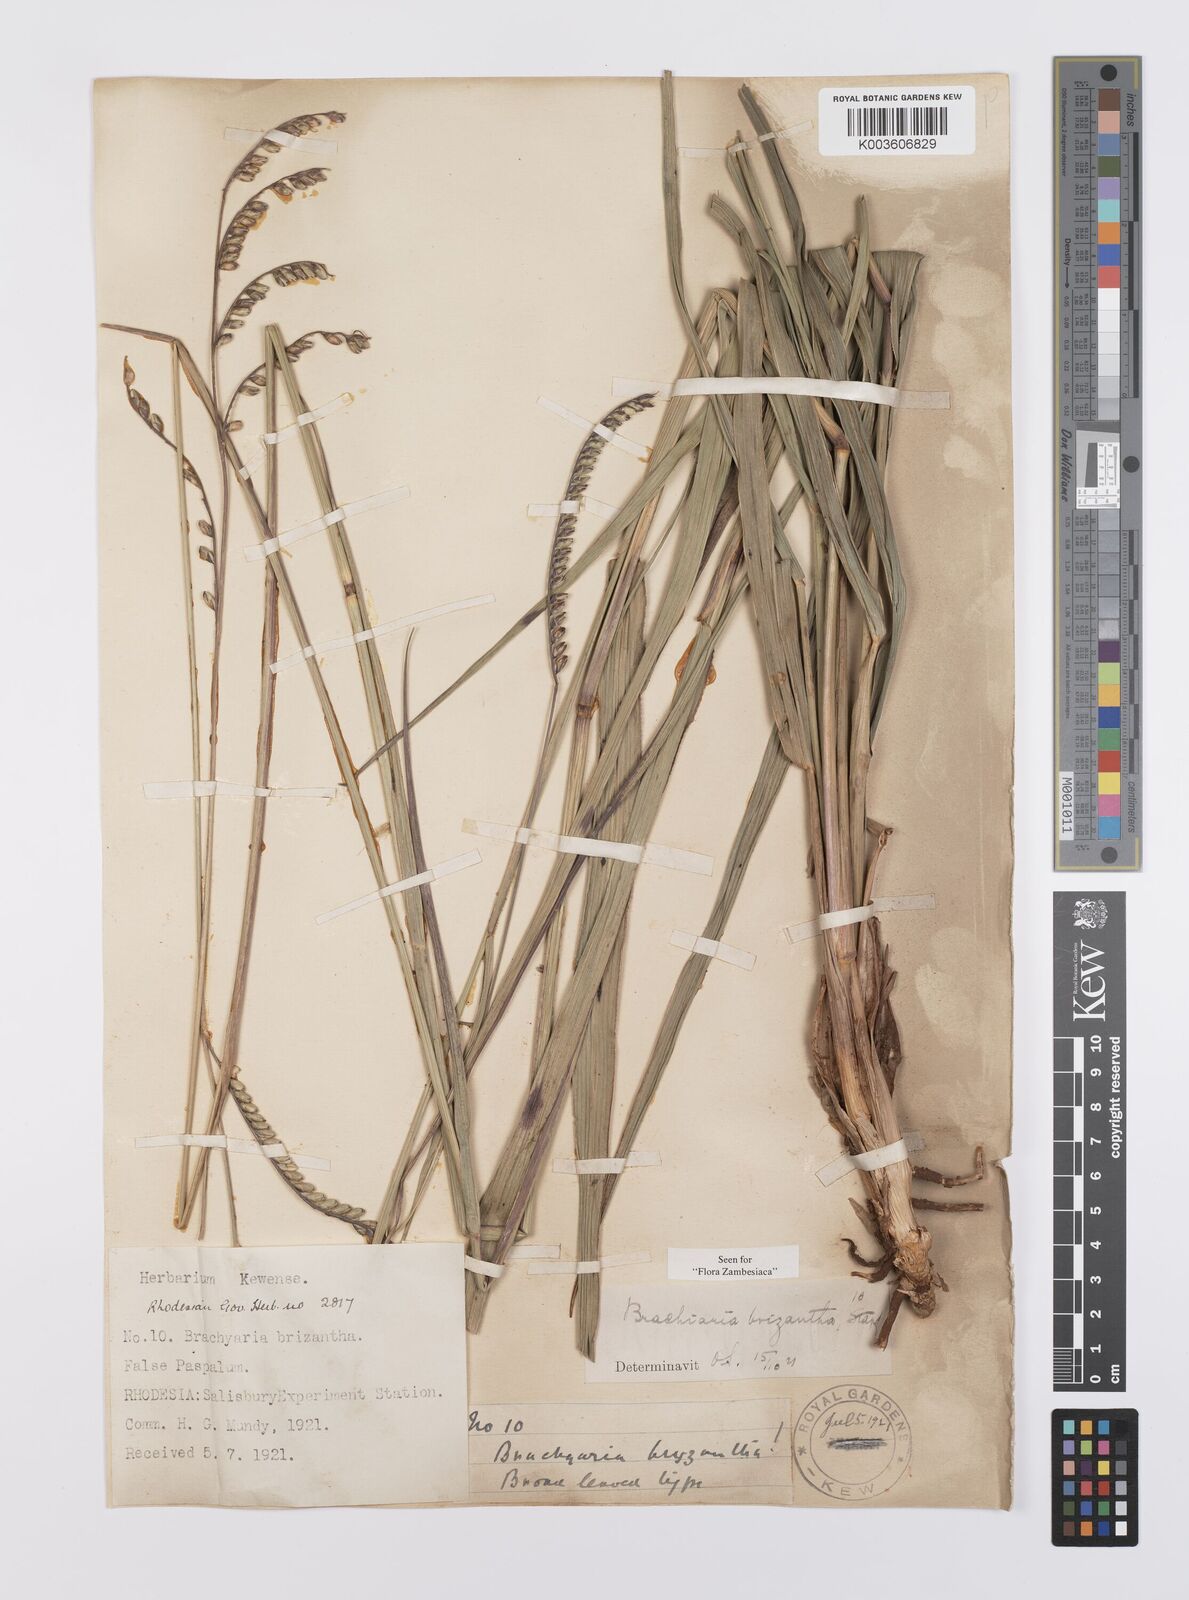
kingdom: Plantae
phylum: Tracheophyta
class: Liliopsida
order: Poales
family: Poaceae
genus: Urochloa
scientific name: Urochloa brizantha
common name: Palisade signalgrass
